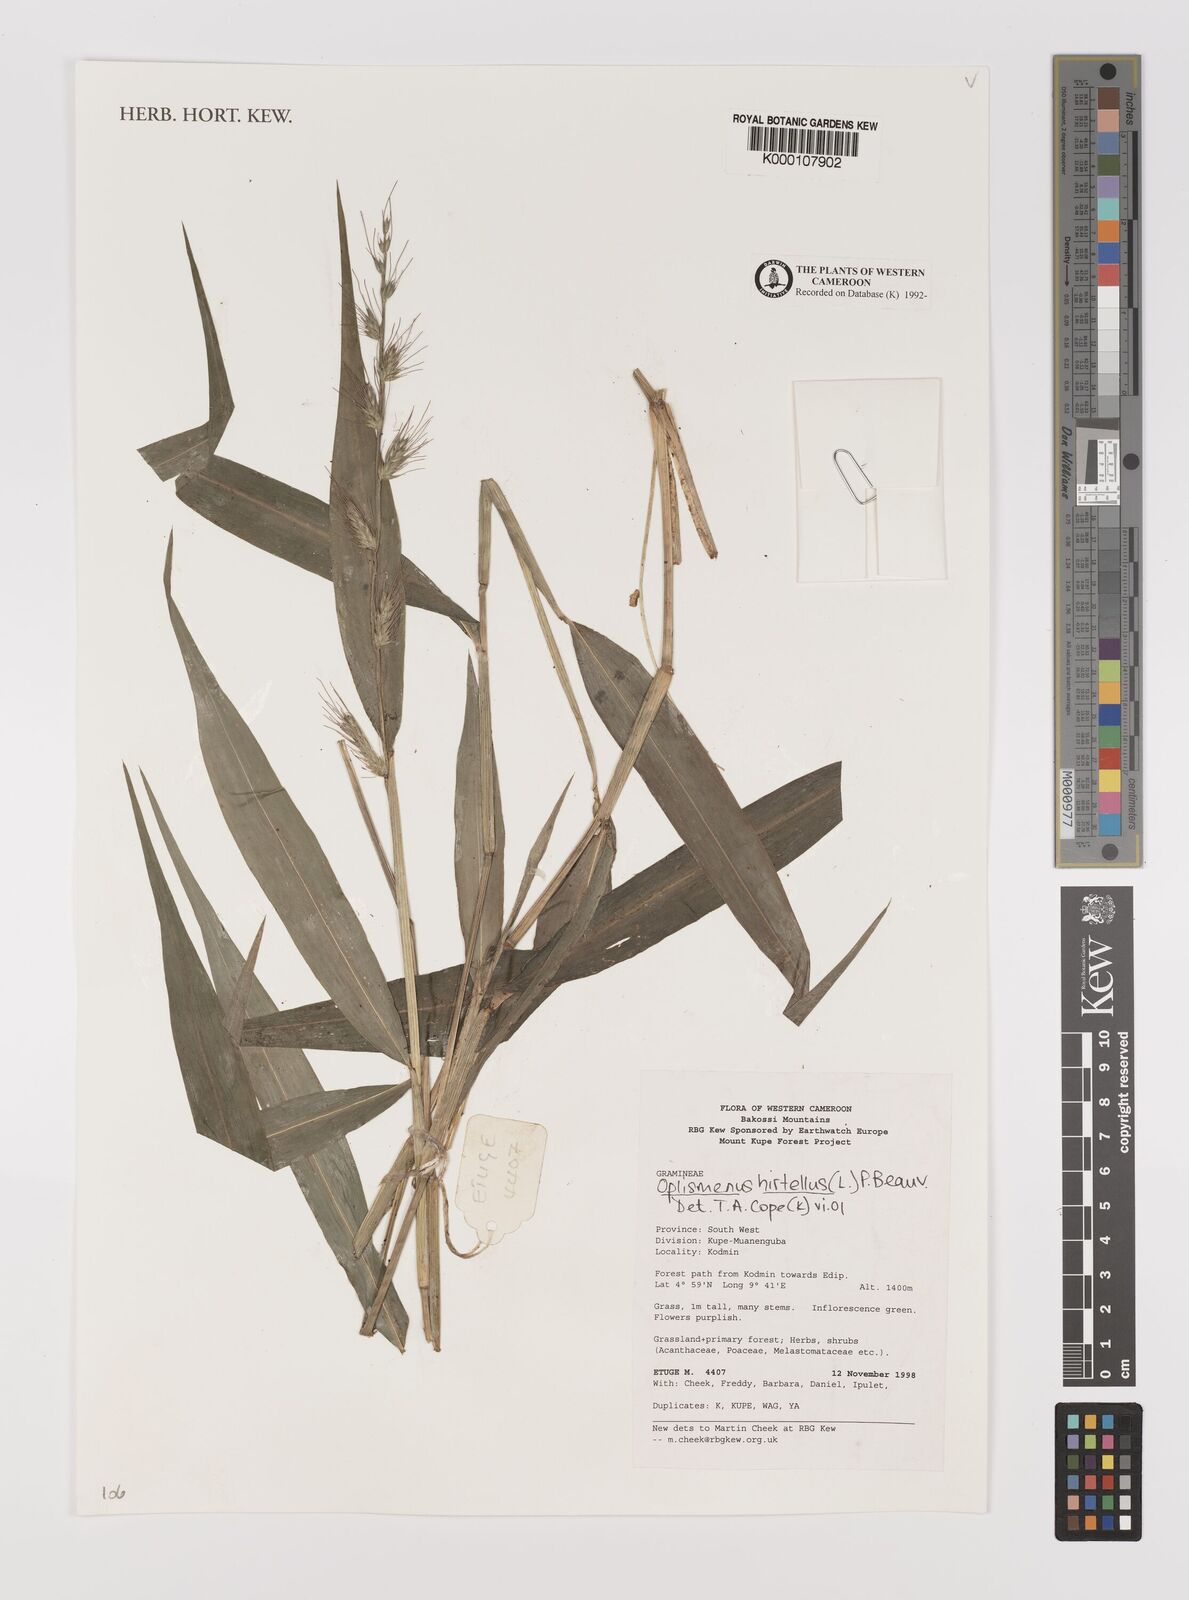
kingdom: Plantae
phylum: Tracheophyta
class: Liliopsida
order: Poales
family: Poaceae
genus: Oplismenus
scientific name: Oplismenus hirtellus
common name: Basketgrass
